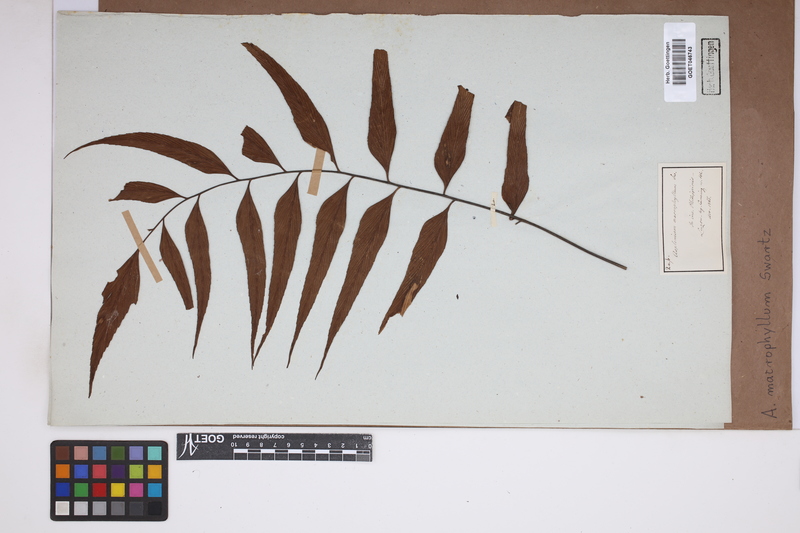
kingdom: Plantae
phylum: Tracheophyta
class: Polypodiopsida
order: Polypodiales
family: Aspleniaceae
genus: Asplenium
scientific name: Asplenium macrophyllum
